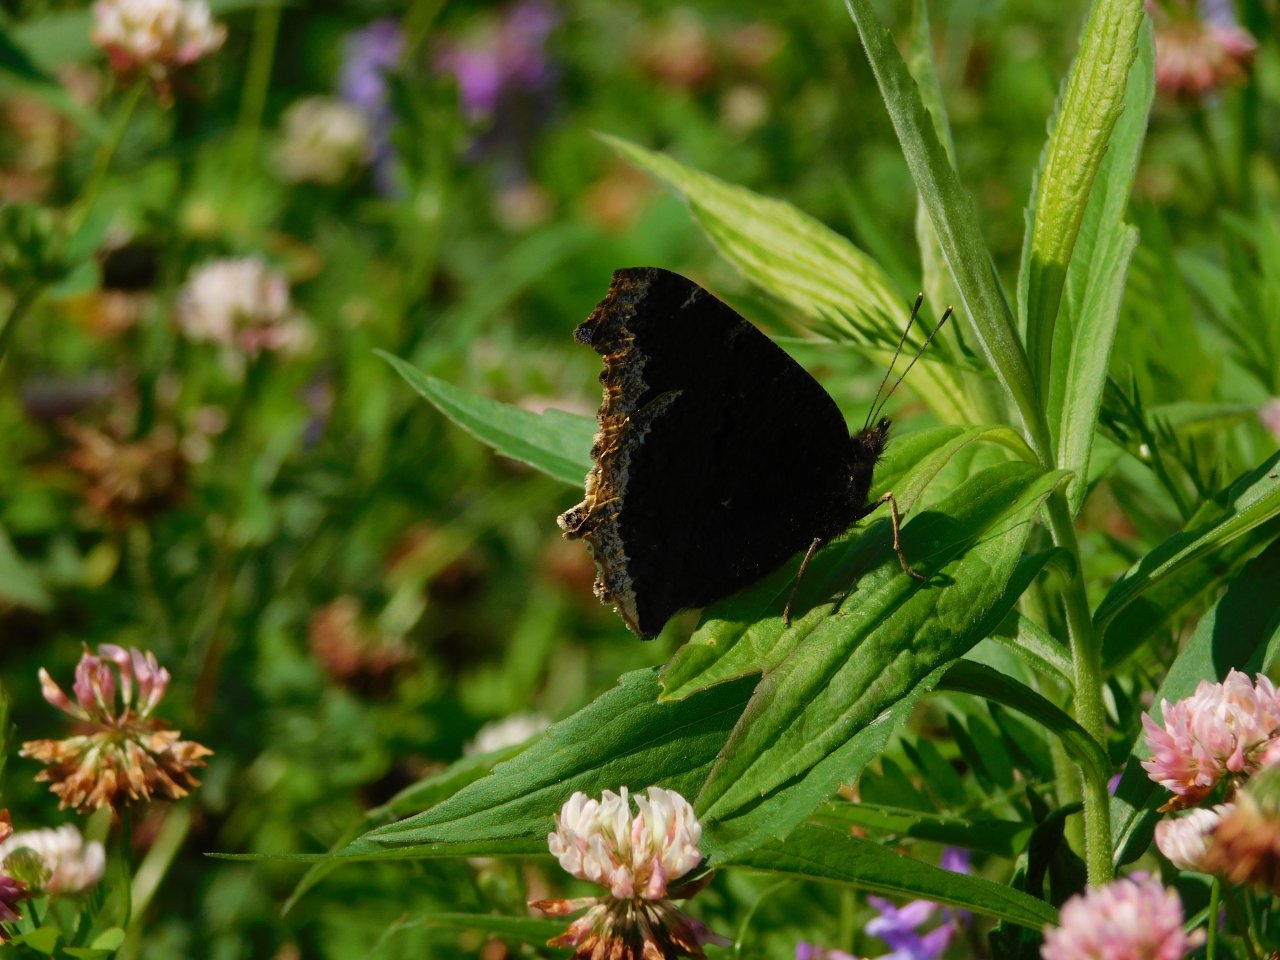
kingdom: Animalia
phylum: Arthropoda
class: Insecta
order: Lepidoptera
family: Nymphalidae
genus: Nymphalis
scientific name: Nymphalis antiopa
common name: Mourning Cloak
